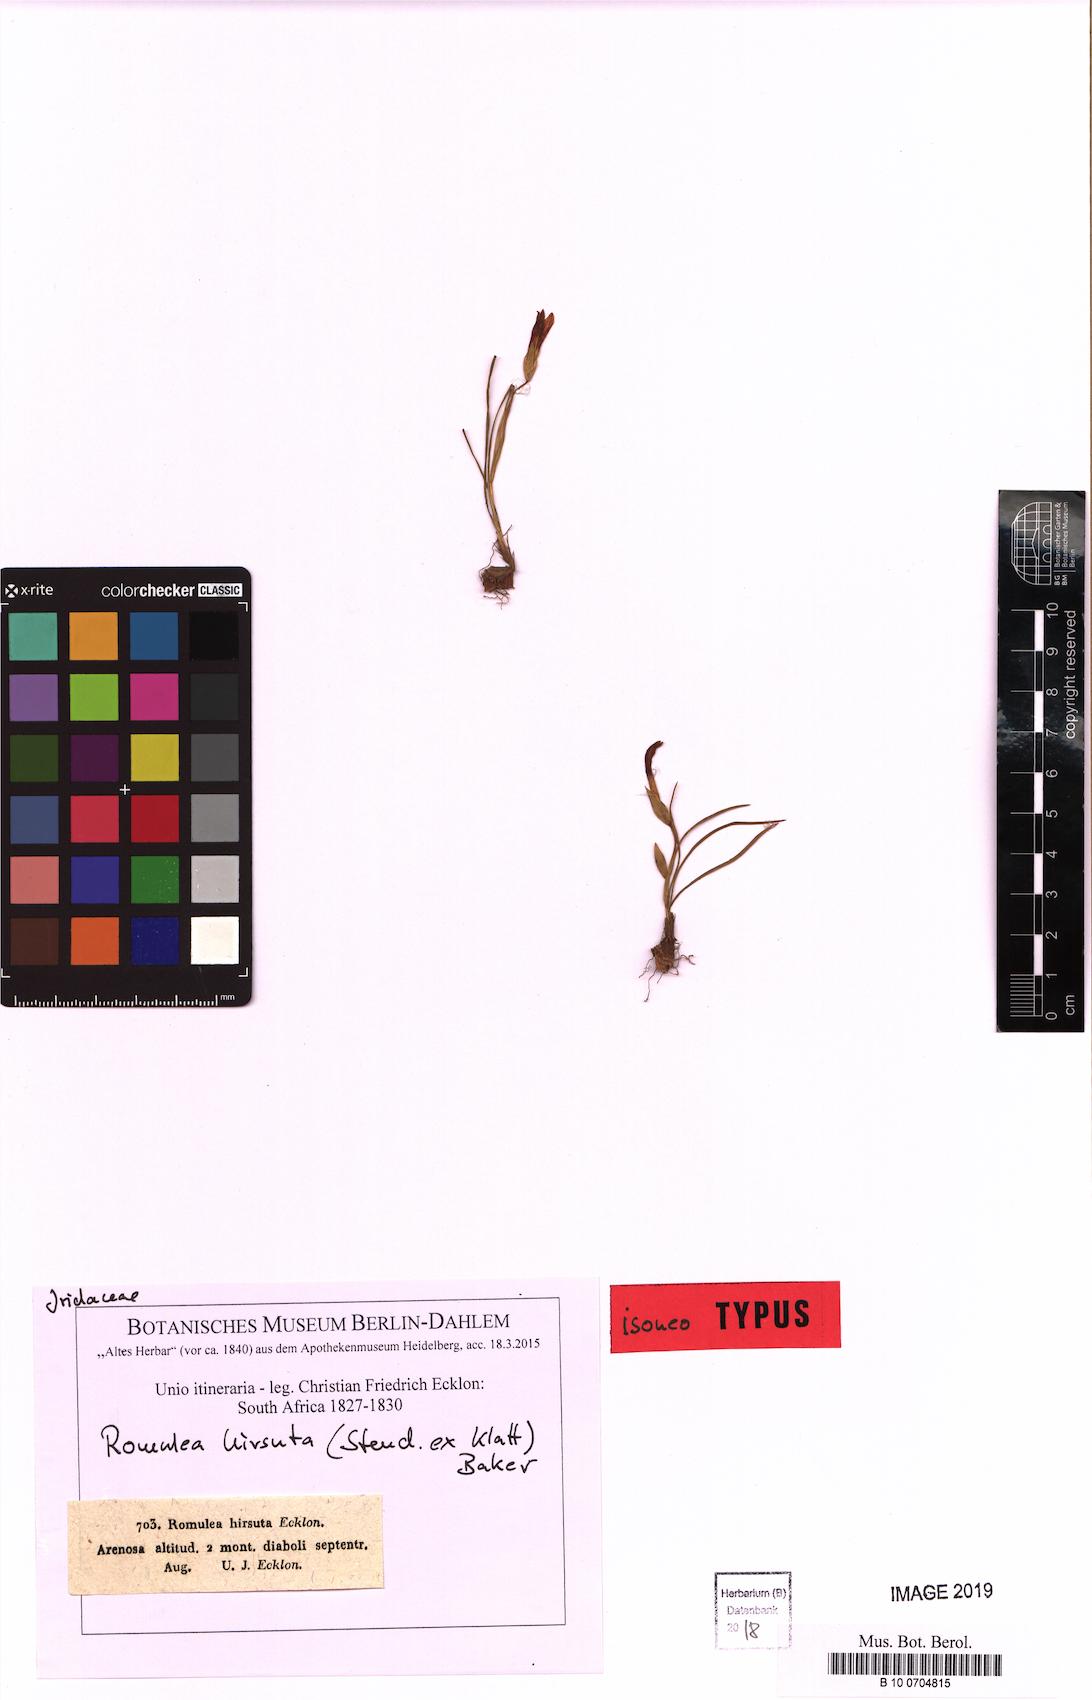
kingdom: Plantae
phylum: Tracheophyta
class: Liliopsida
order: Asparagales
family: Iridaceae
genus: Romulea
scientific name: Romulea hirsuta
